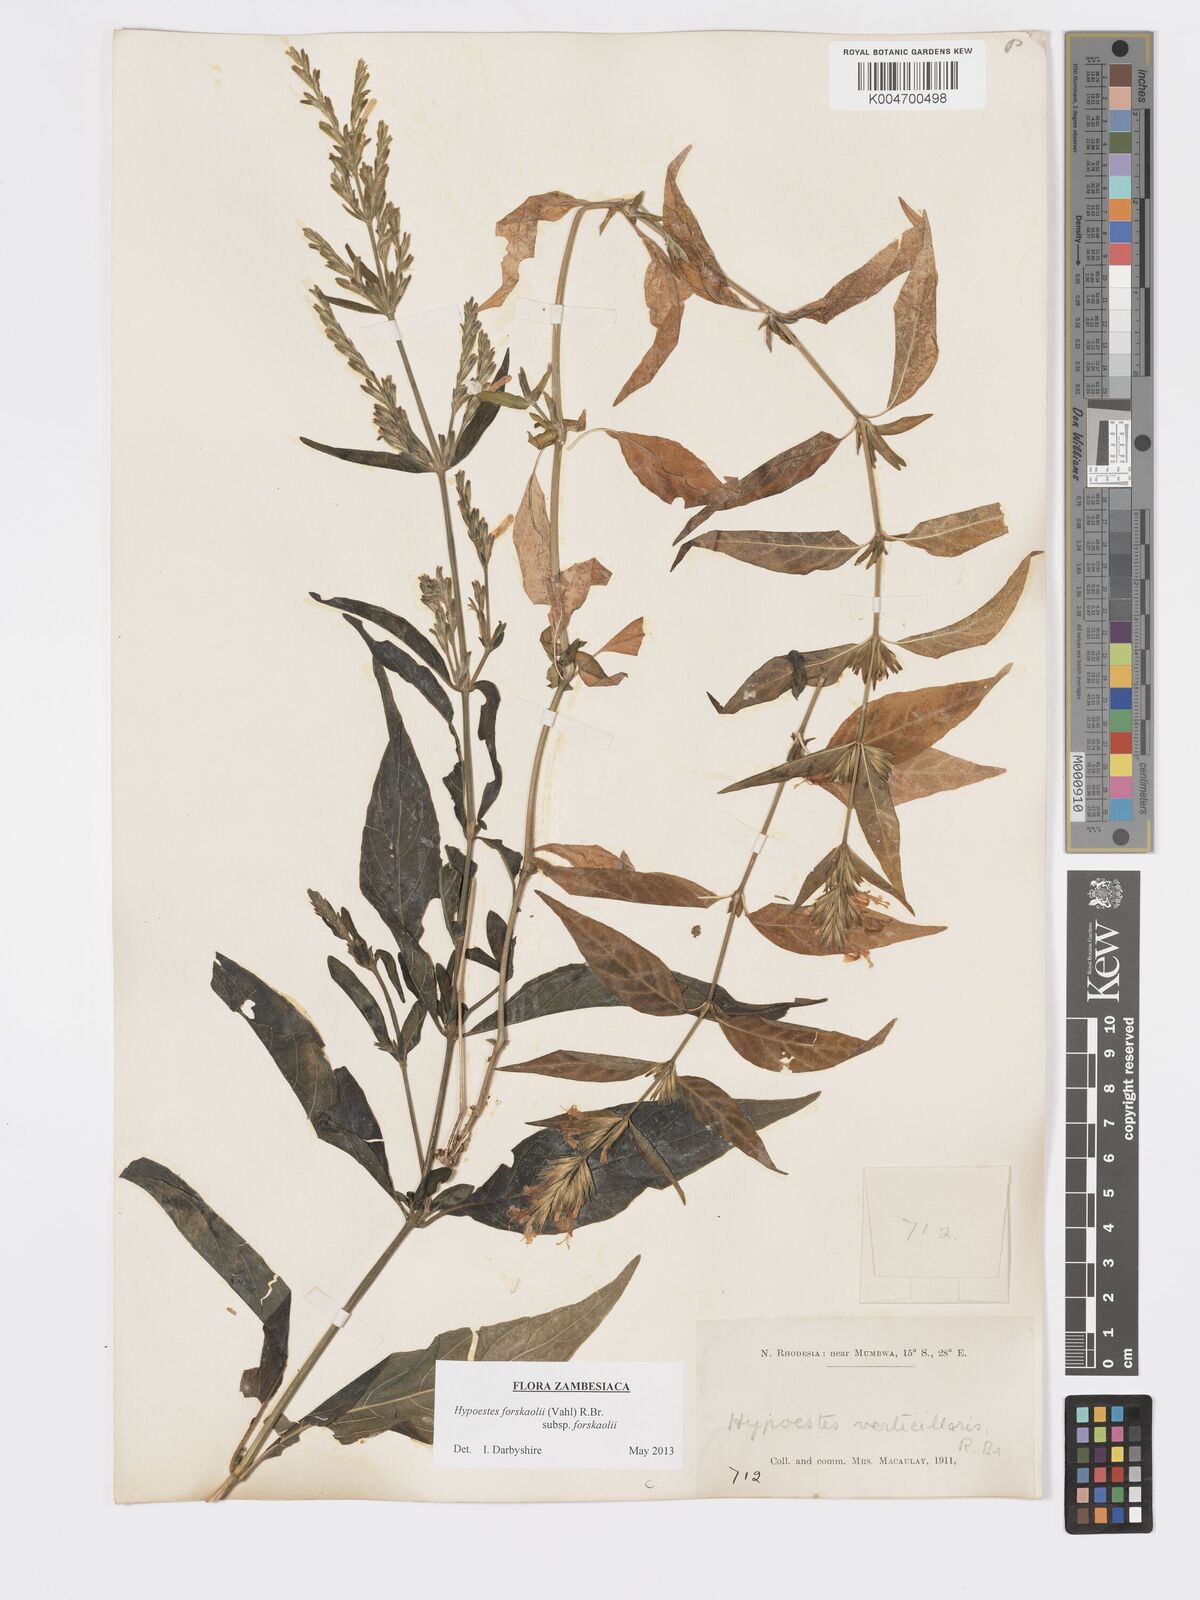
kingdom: Plantae
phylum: Tracheophyta
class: Magnoliopsida
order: Lamiales
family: Acanthaceae
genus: Hypoestes
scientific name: Hypoestes forskaolii
